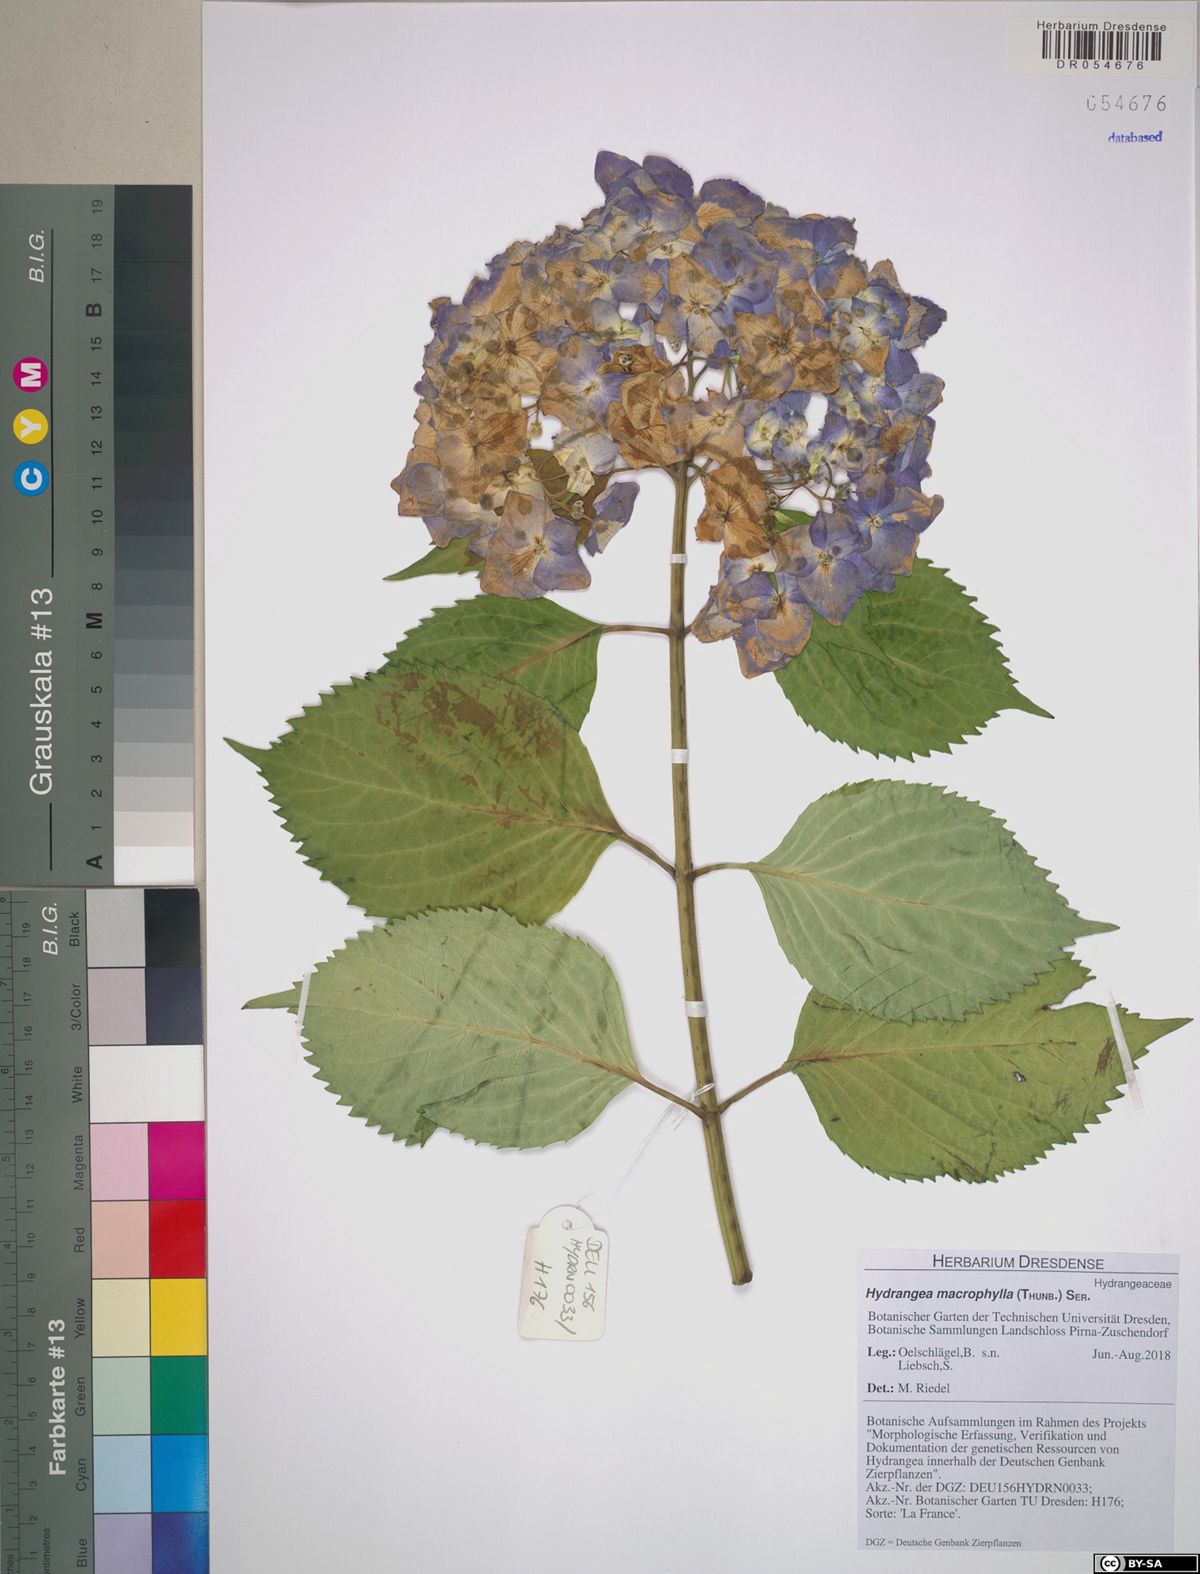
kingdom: Plantae
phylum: Tracheophyta
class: Magnoliopsida
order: Cornales
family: Hydrangeaceae
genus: Hydrangea
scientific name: Hydrangea macrophylla
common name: Hydrangea
